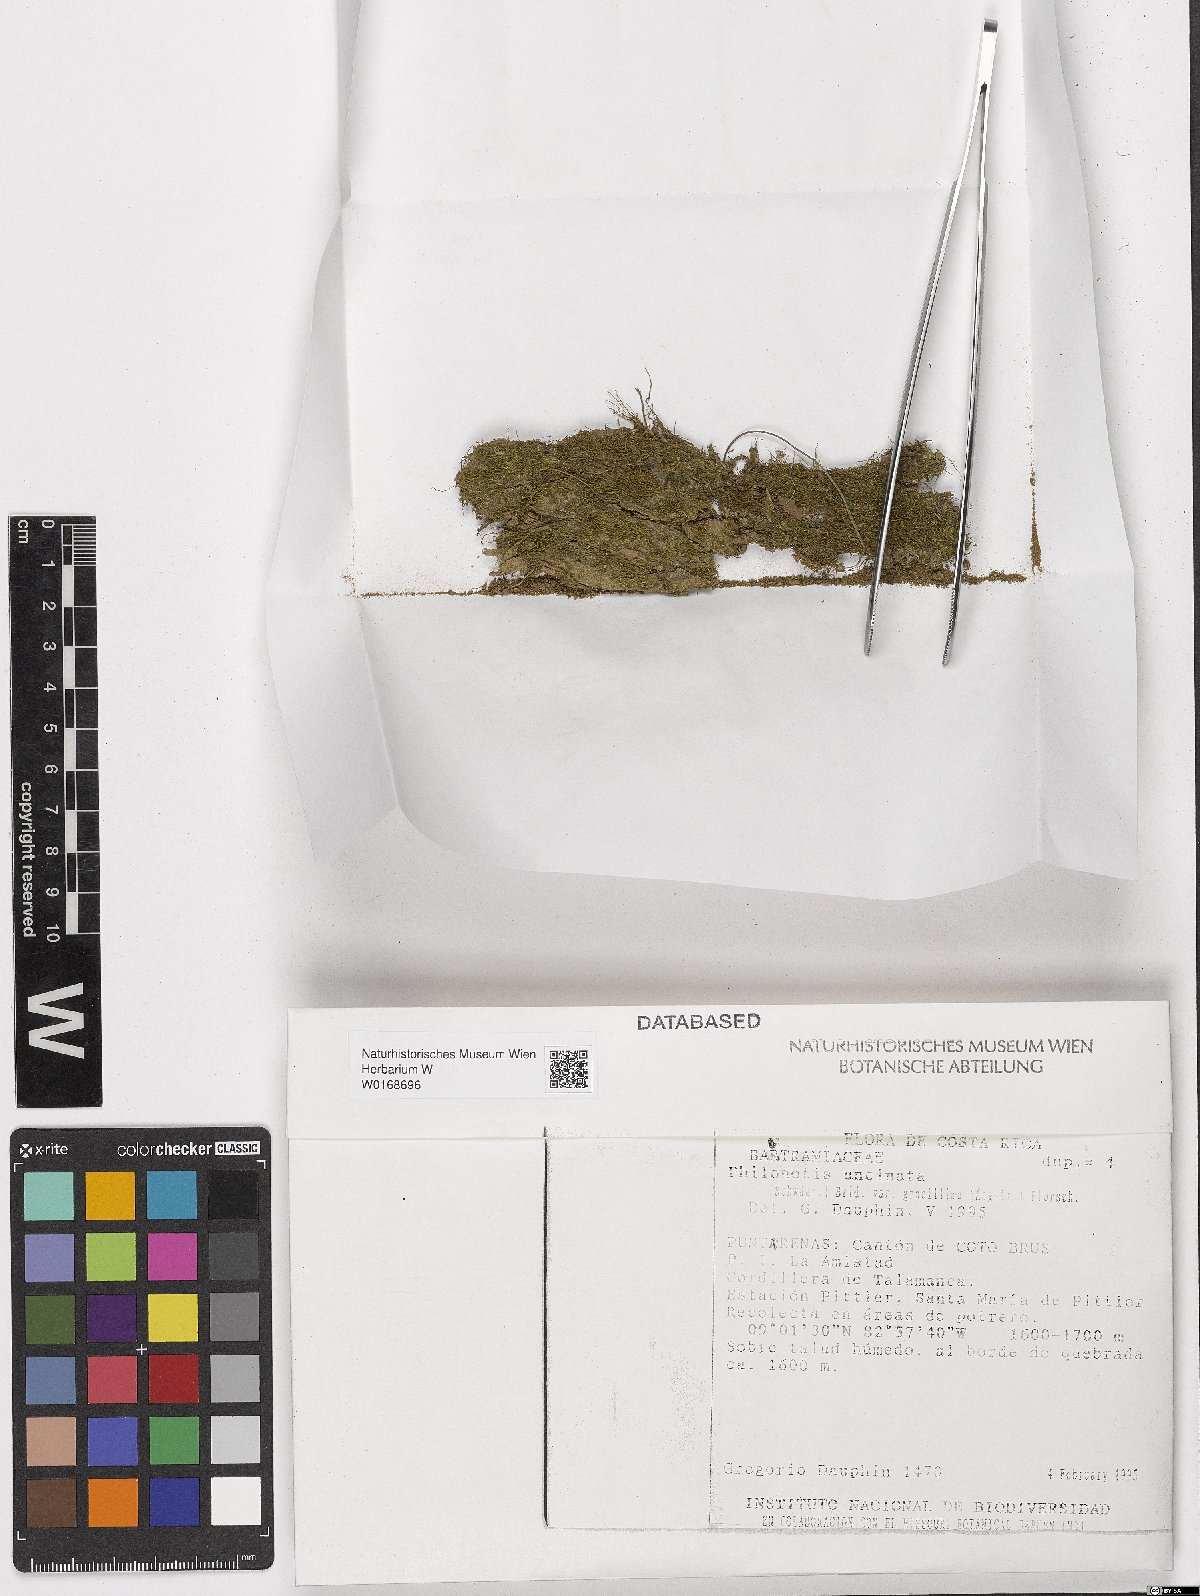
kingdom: Plantae
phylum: Bryophyta
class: Bryopsida
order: Bartramiales
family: Bartramiaceae
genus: Philonotis
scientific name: Philonotis uncinata
